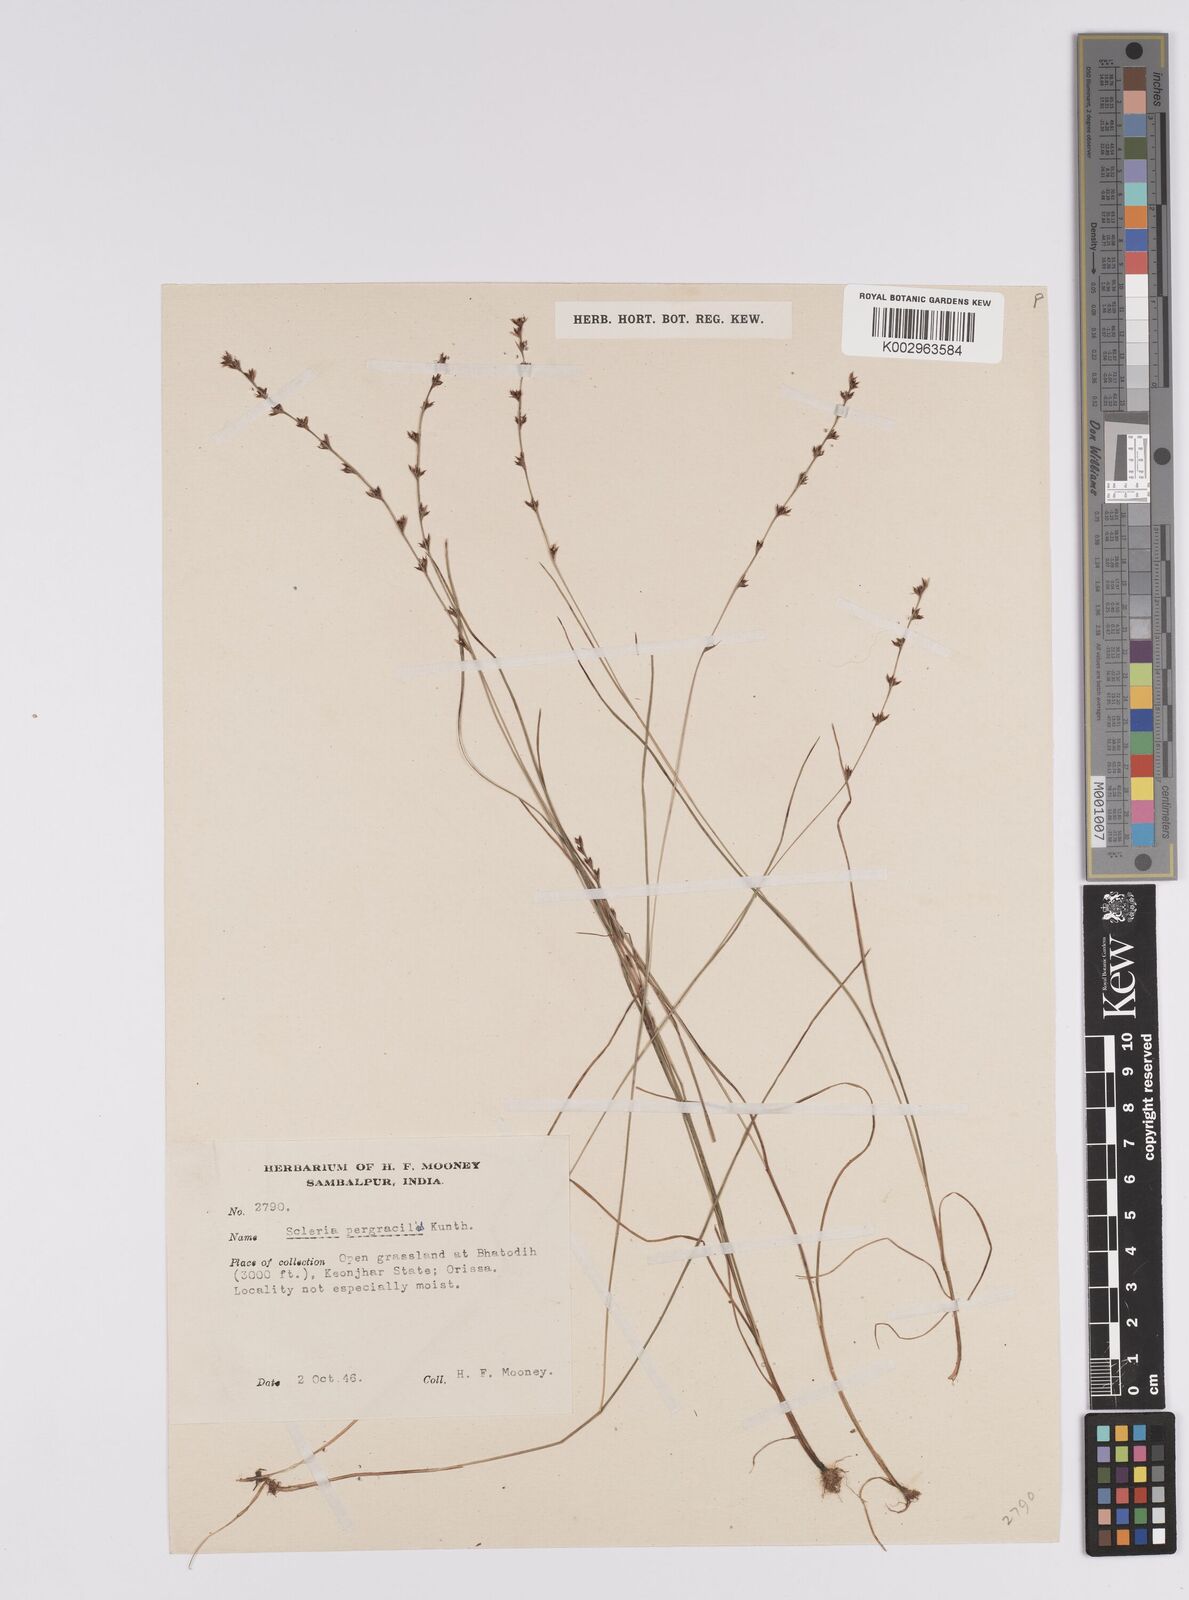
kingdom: Plantae
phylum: Tracheophyta
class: Liliopsida
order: Poales
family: Cyperaceae
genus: Scleria
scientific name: Scleria pergracilis
